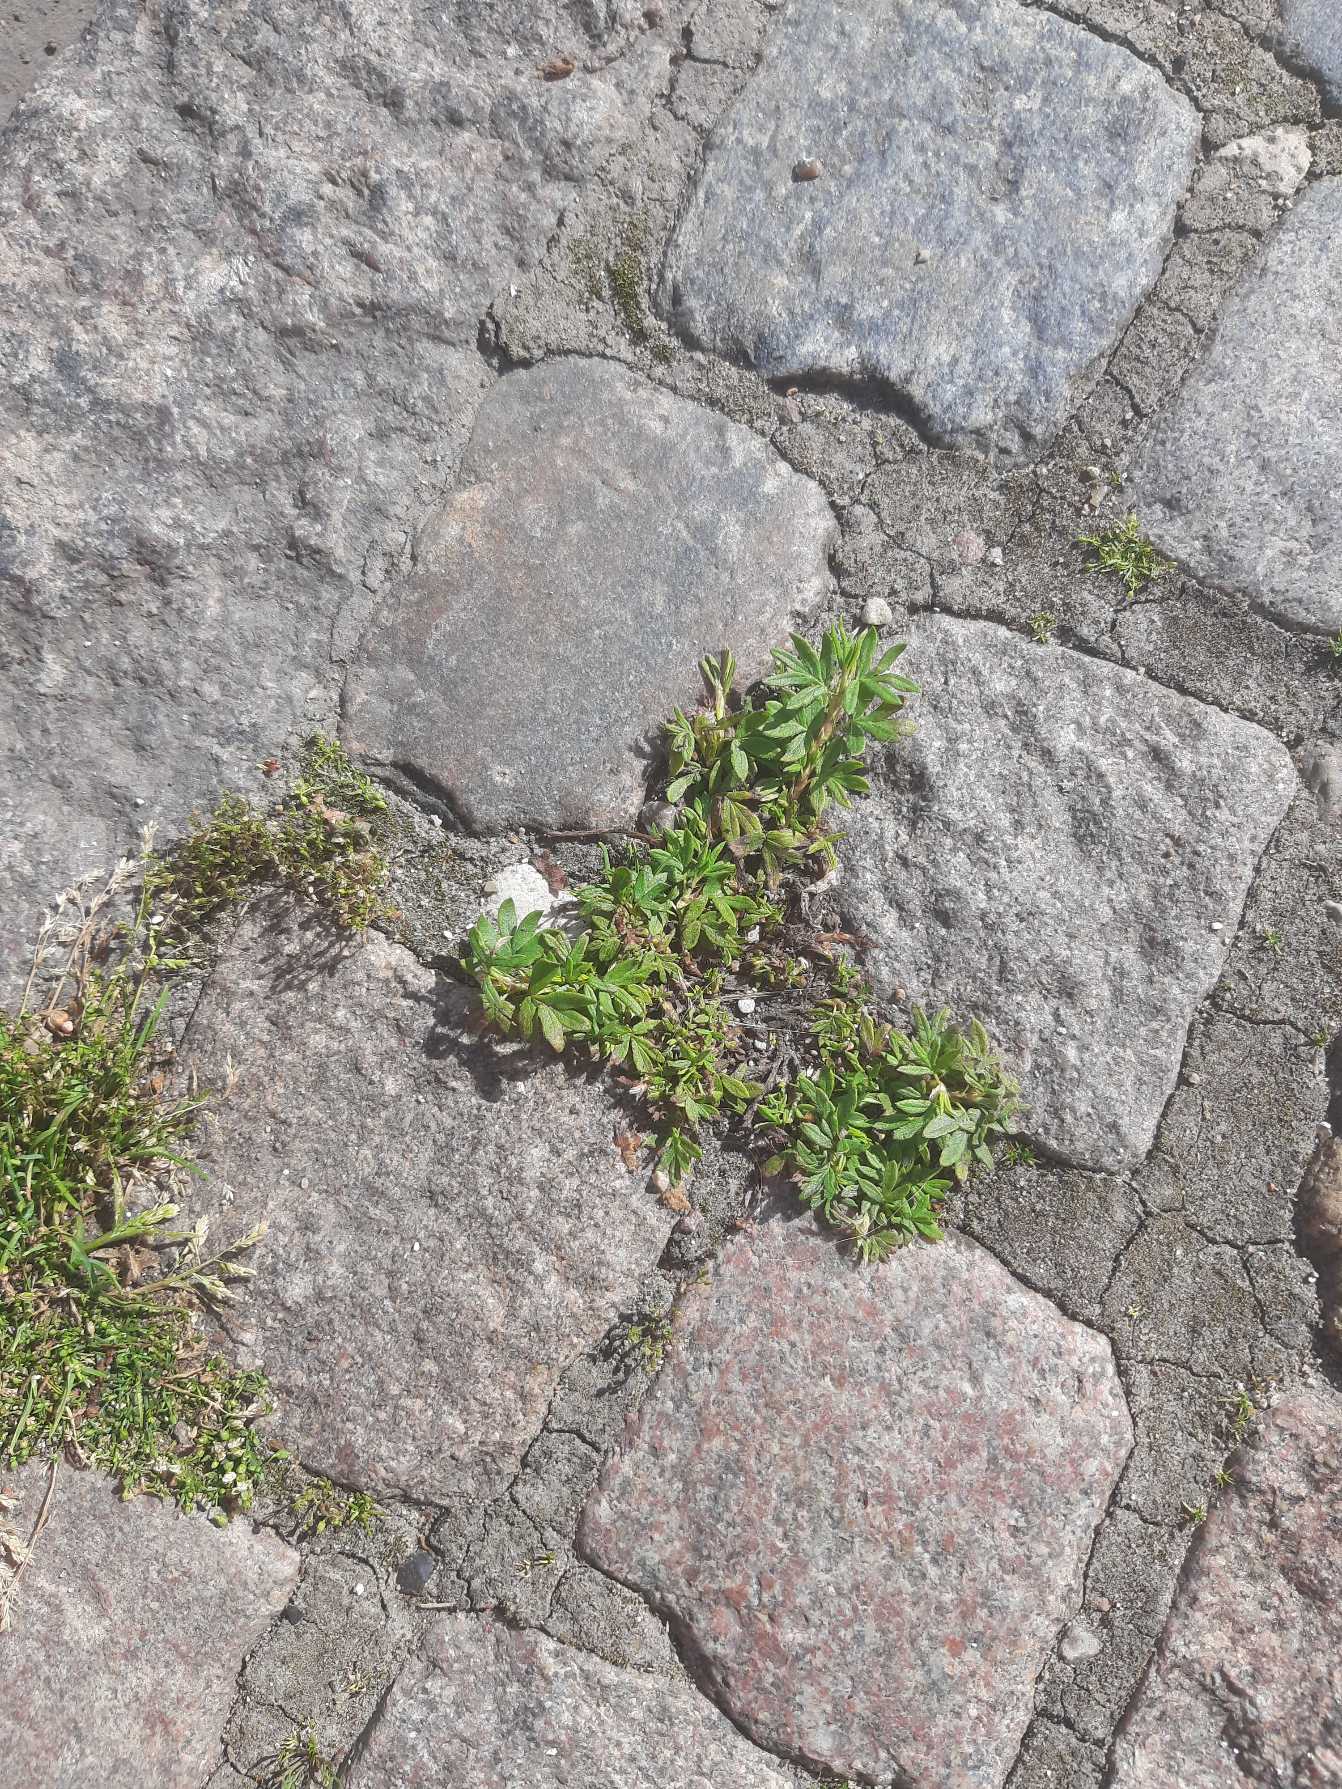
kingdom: Plantae
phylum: Tracheophyta
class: Magnoliopsida
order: Rosales
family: Rosaceae
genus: Dasiphora
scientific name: Dasiphora fruticosa
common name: Buskpotentil
